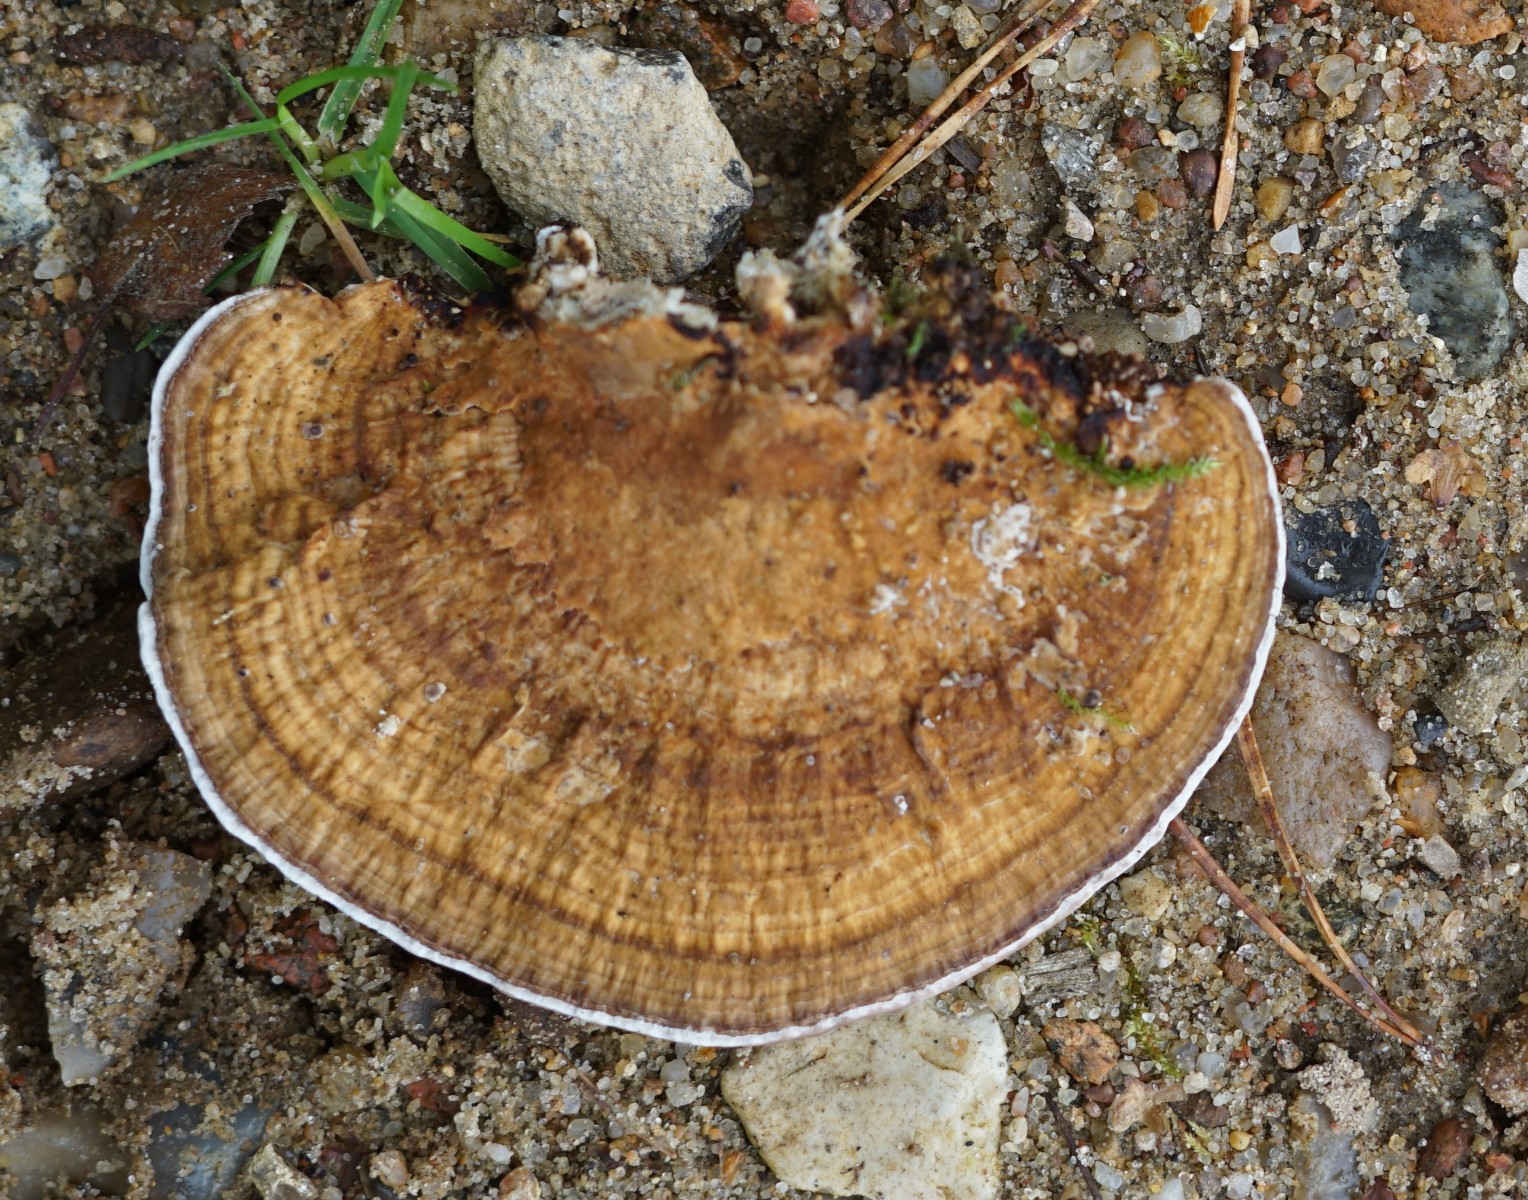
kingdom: Fungi
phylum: Basidiomycota
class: Agaricomycetes
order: Polyporales
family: Polyporaceae
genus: Daedaleopsis
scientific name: Daedaleopsis confragosa
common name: rødmende læderporesvamp
